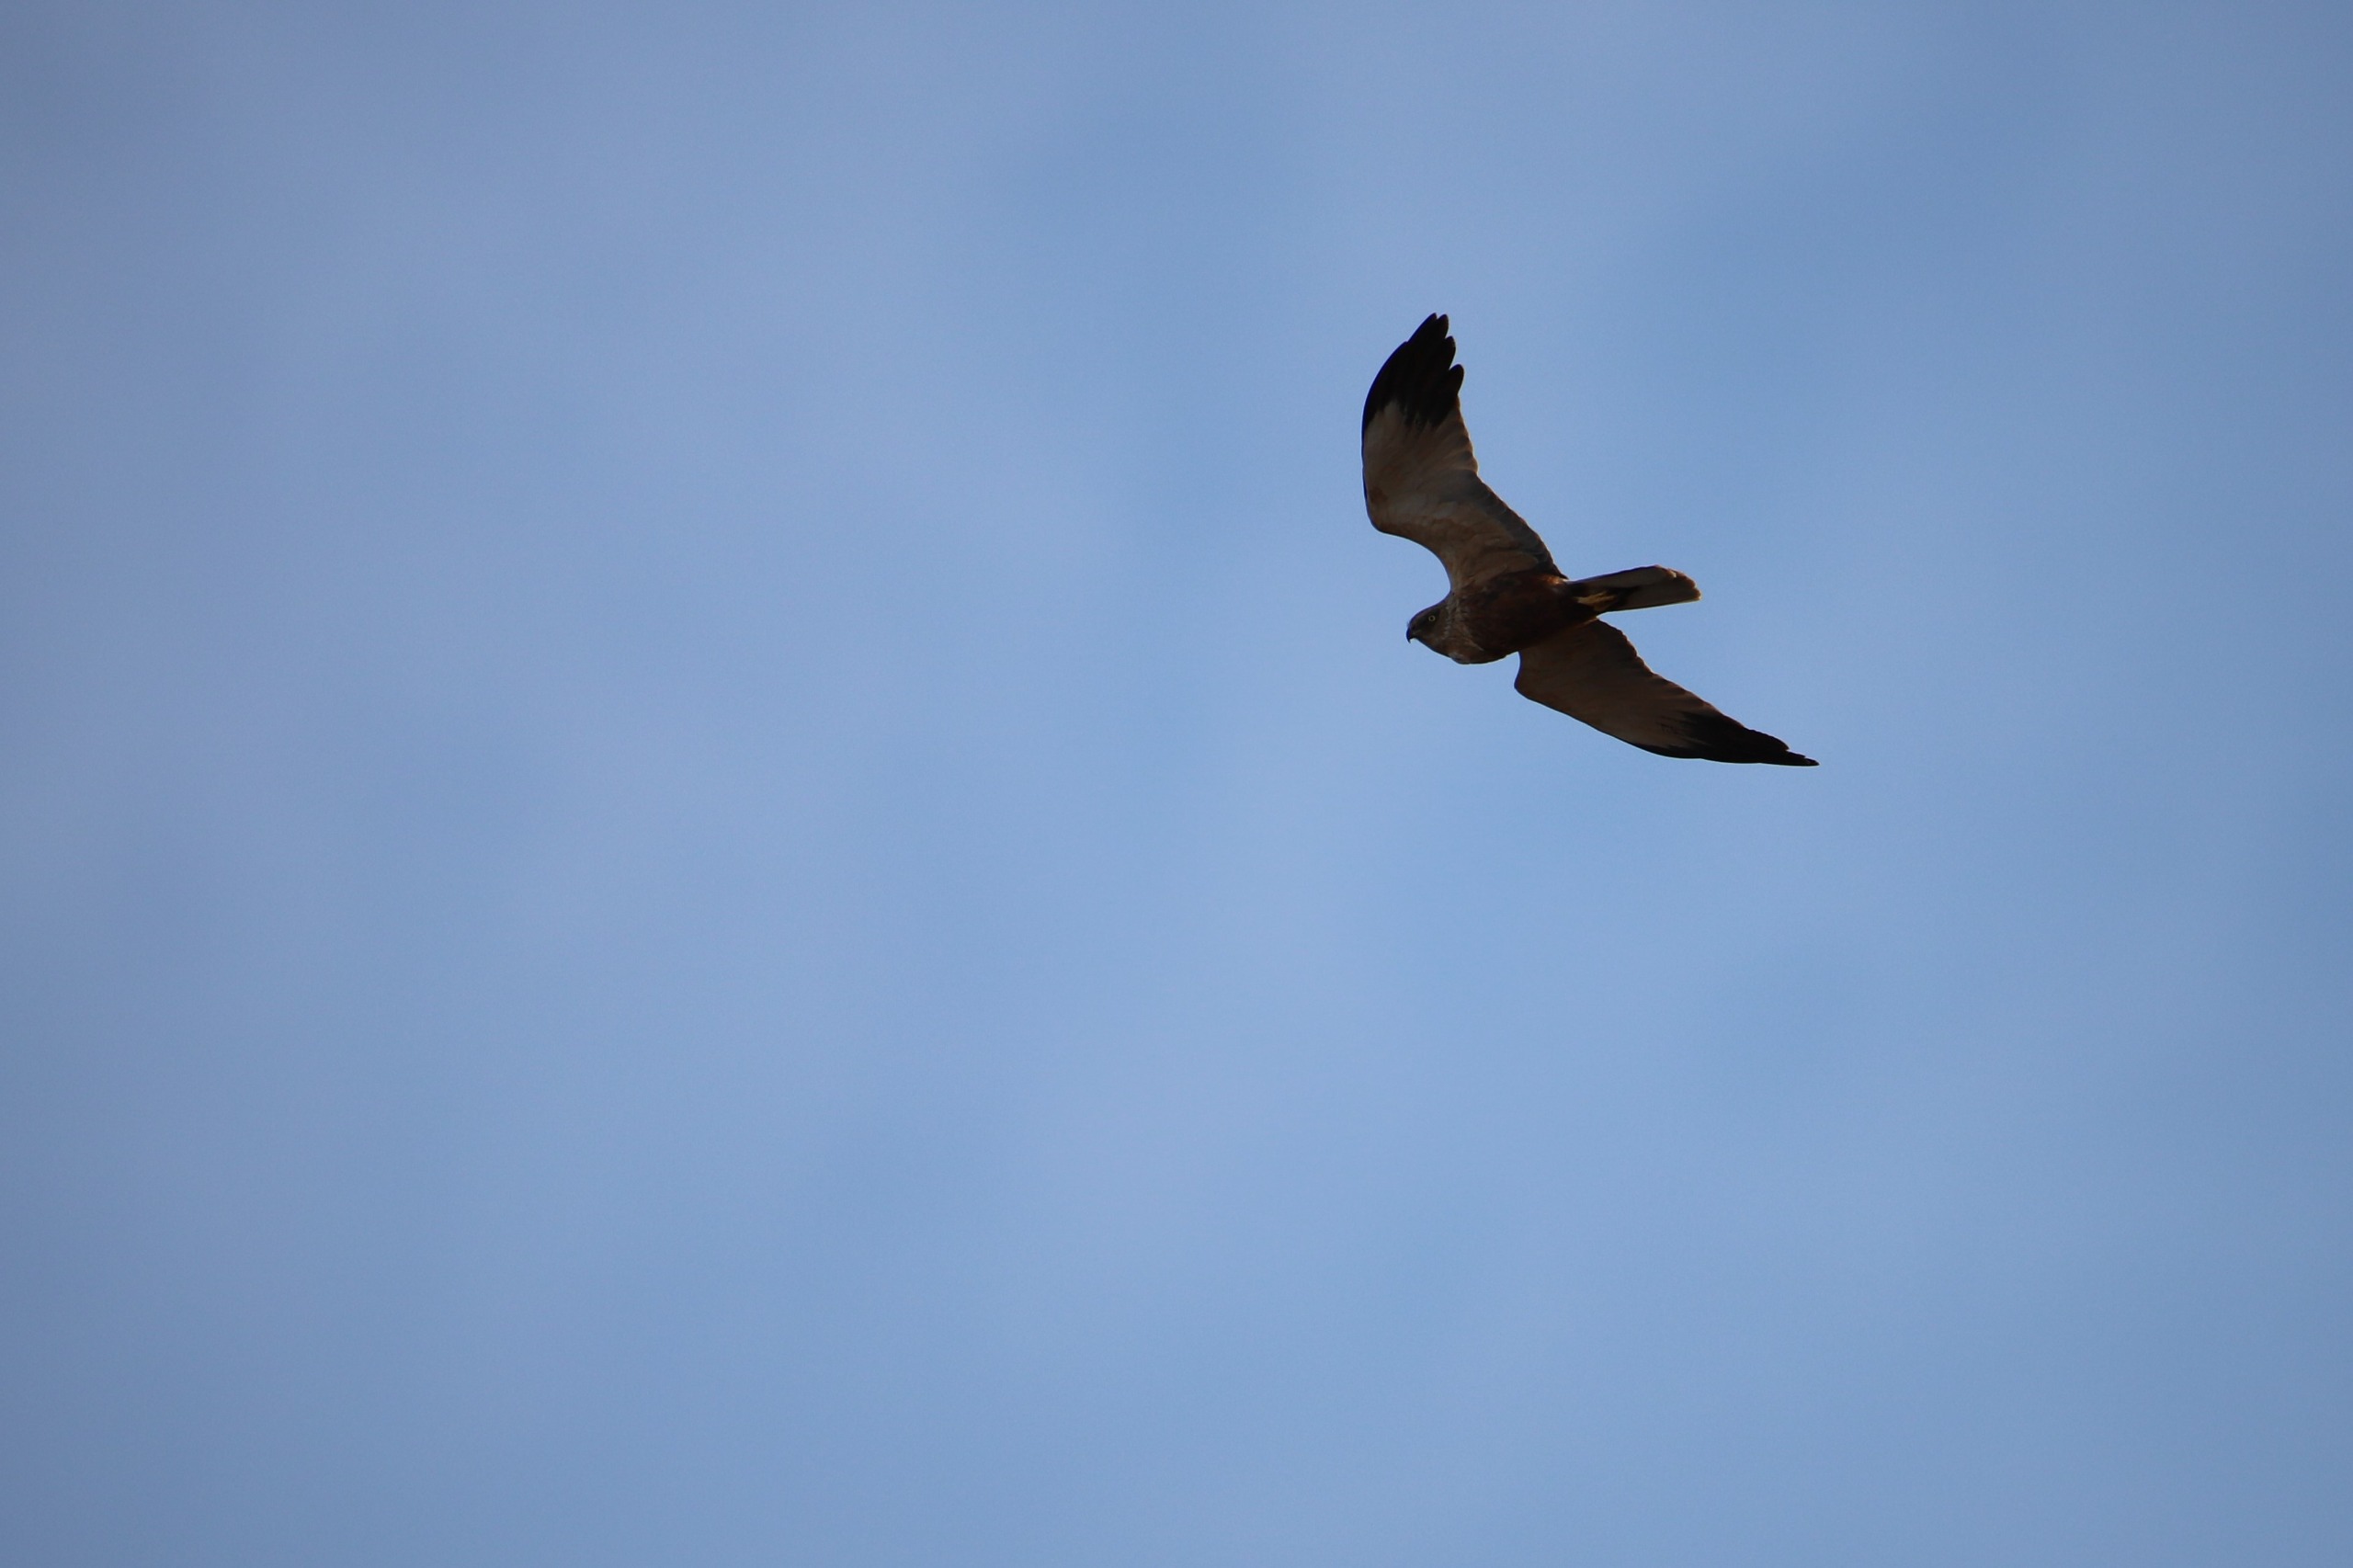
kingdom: Animalia
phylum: Chordata
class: Aves
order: Accipitriformes
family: Accipitridae
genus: Circus
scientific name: Circus aeruginosus
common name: Rørhøg
